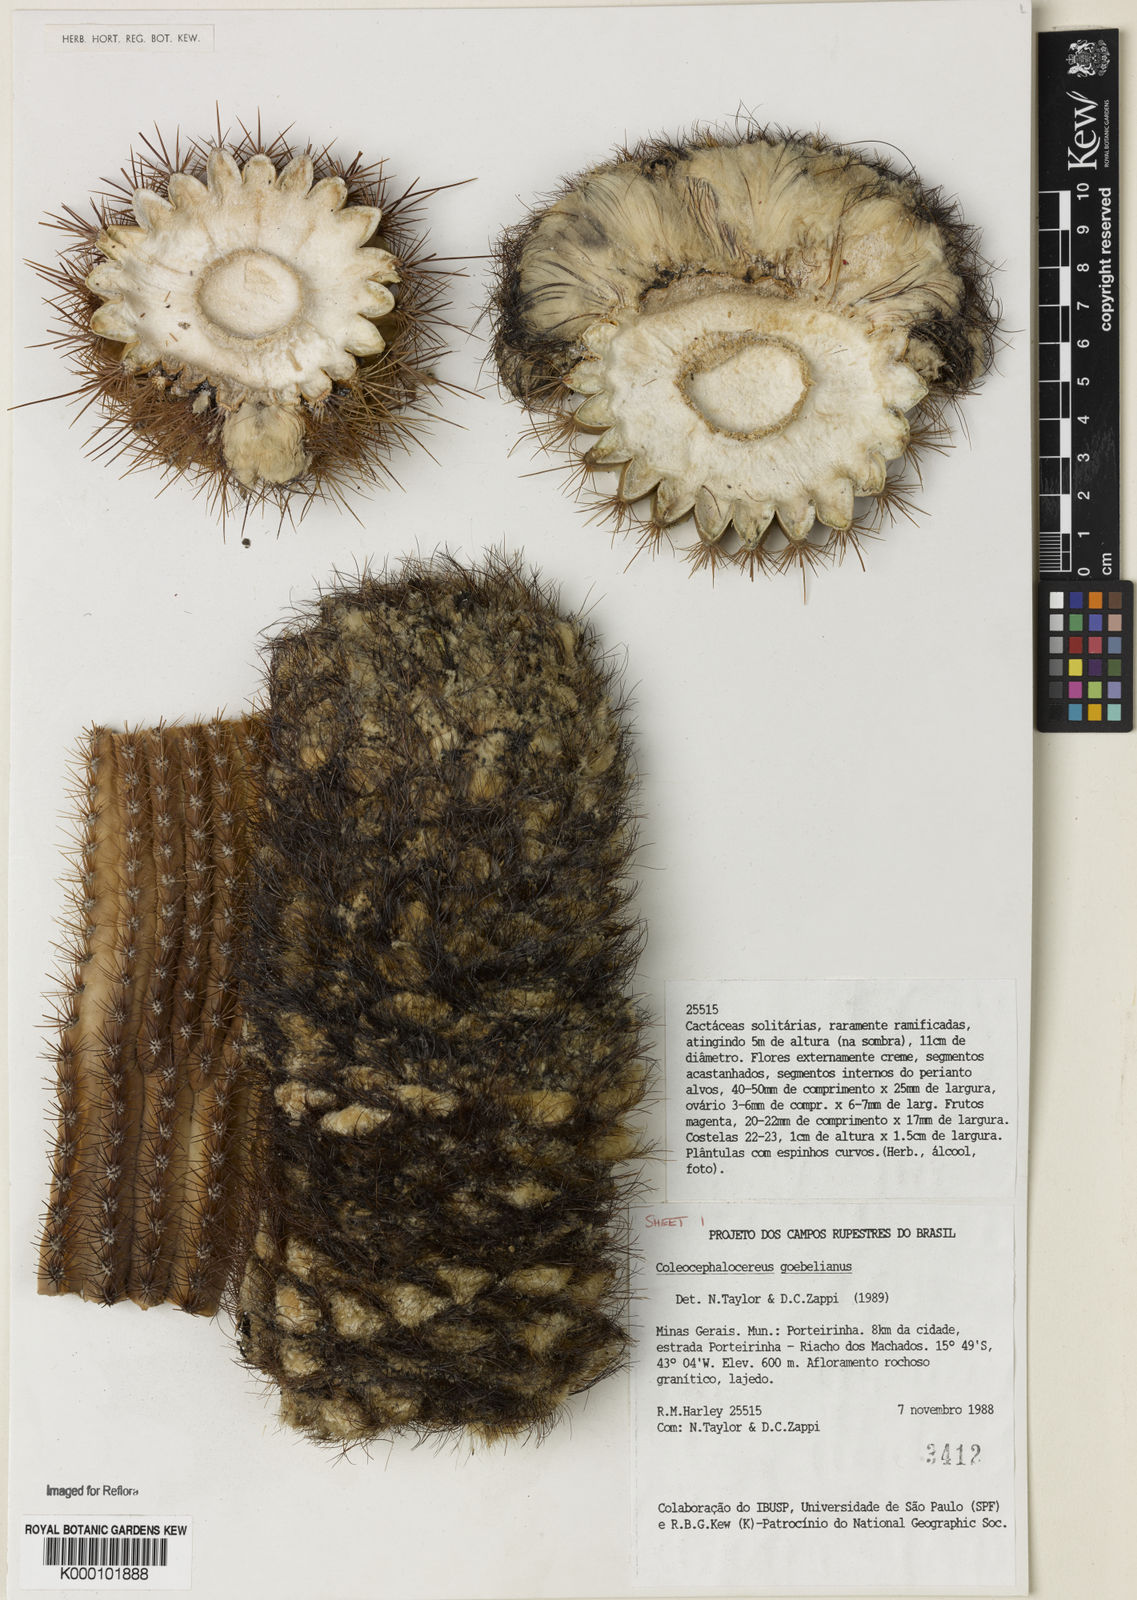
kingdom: Plantae
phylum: Tracheophyta
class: Magnoliopsida
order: Caryophyllales
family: Cactaceae
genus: Coleocephalocereus
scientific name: Coleocephalocereus goebelianus
